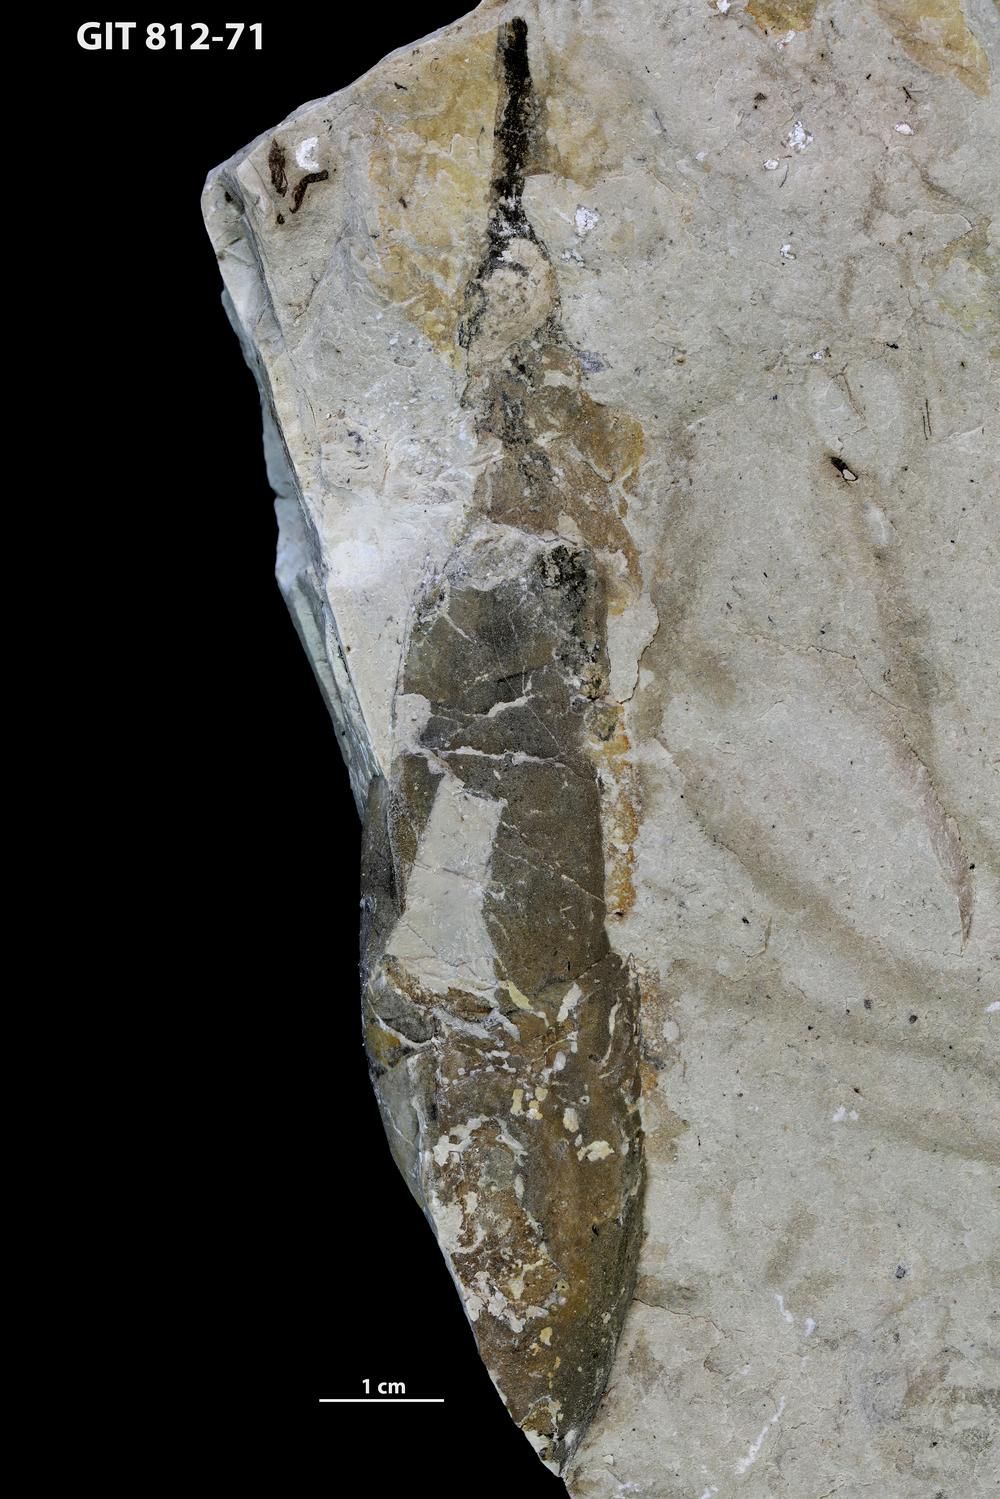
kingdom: Animalia
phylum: Mollusca
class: Gastropoda
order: Pleurotomariida
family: Murchisoniidae
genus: Murchisonia
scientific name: Murchisonia
